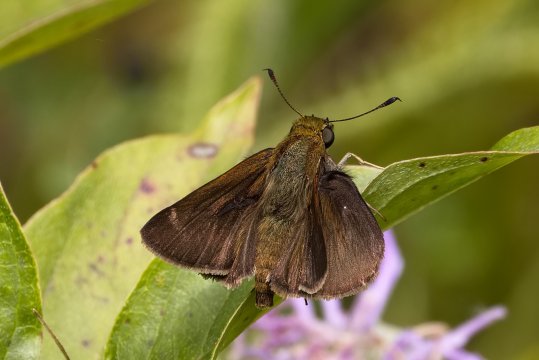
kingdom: Animalia
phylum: Arthropoda
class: Insecta
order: Lepidoptera
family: Hesperiidae
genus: Euphyes
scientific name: Euphyes vestris
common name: Dun Skipper
